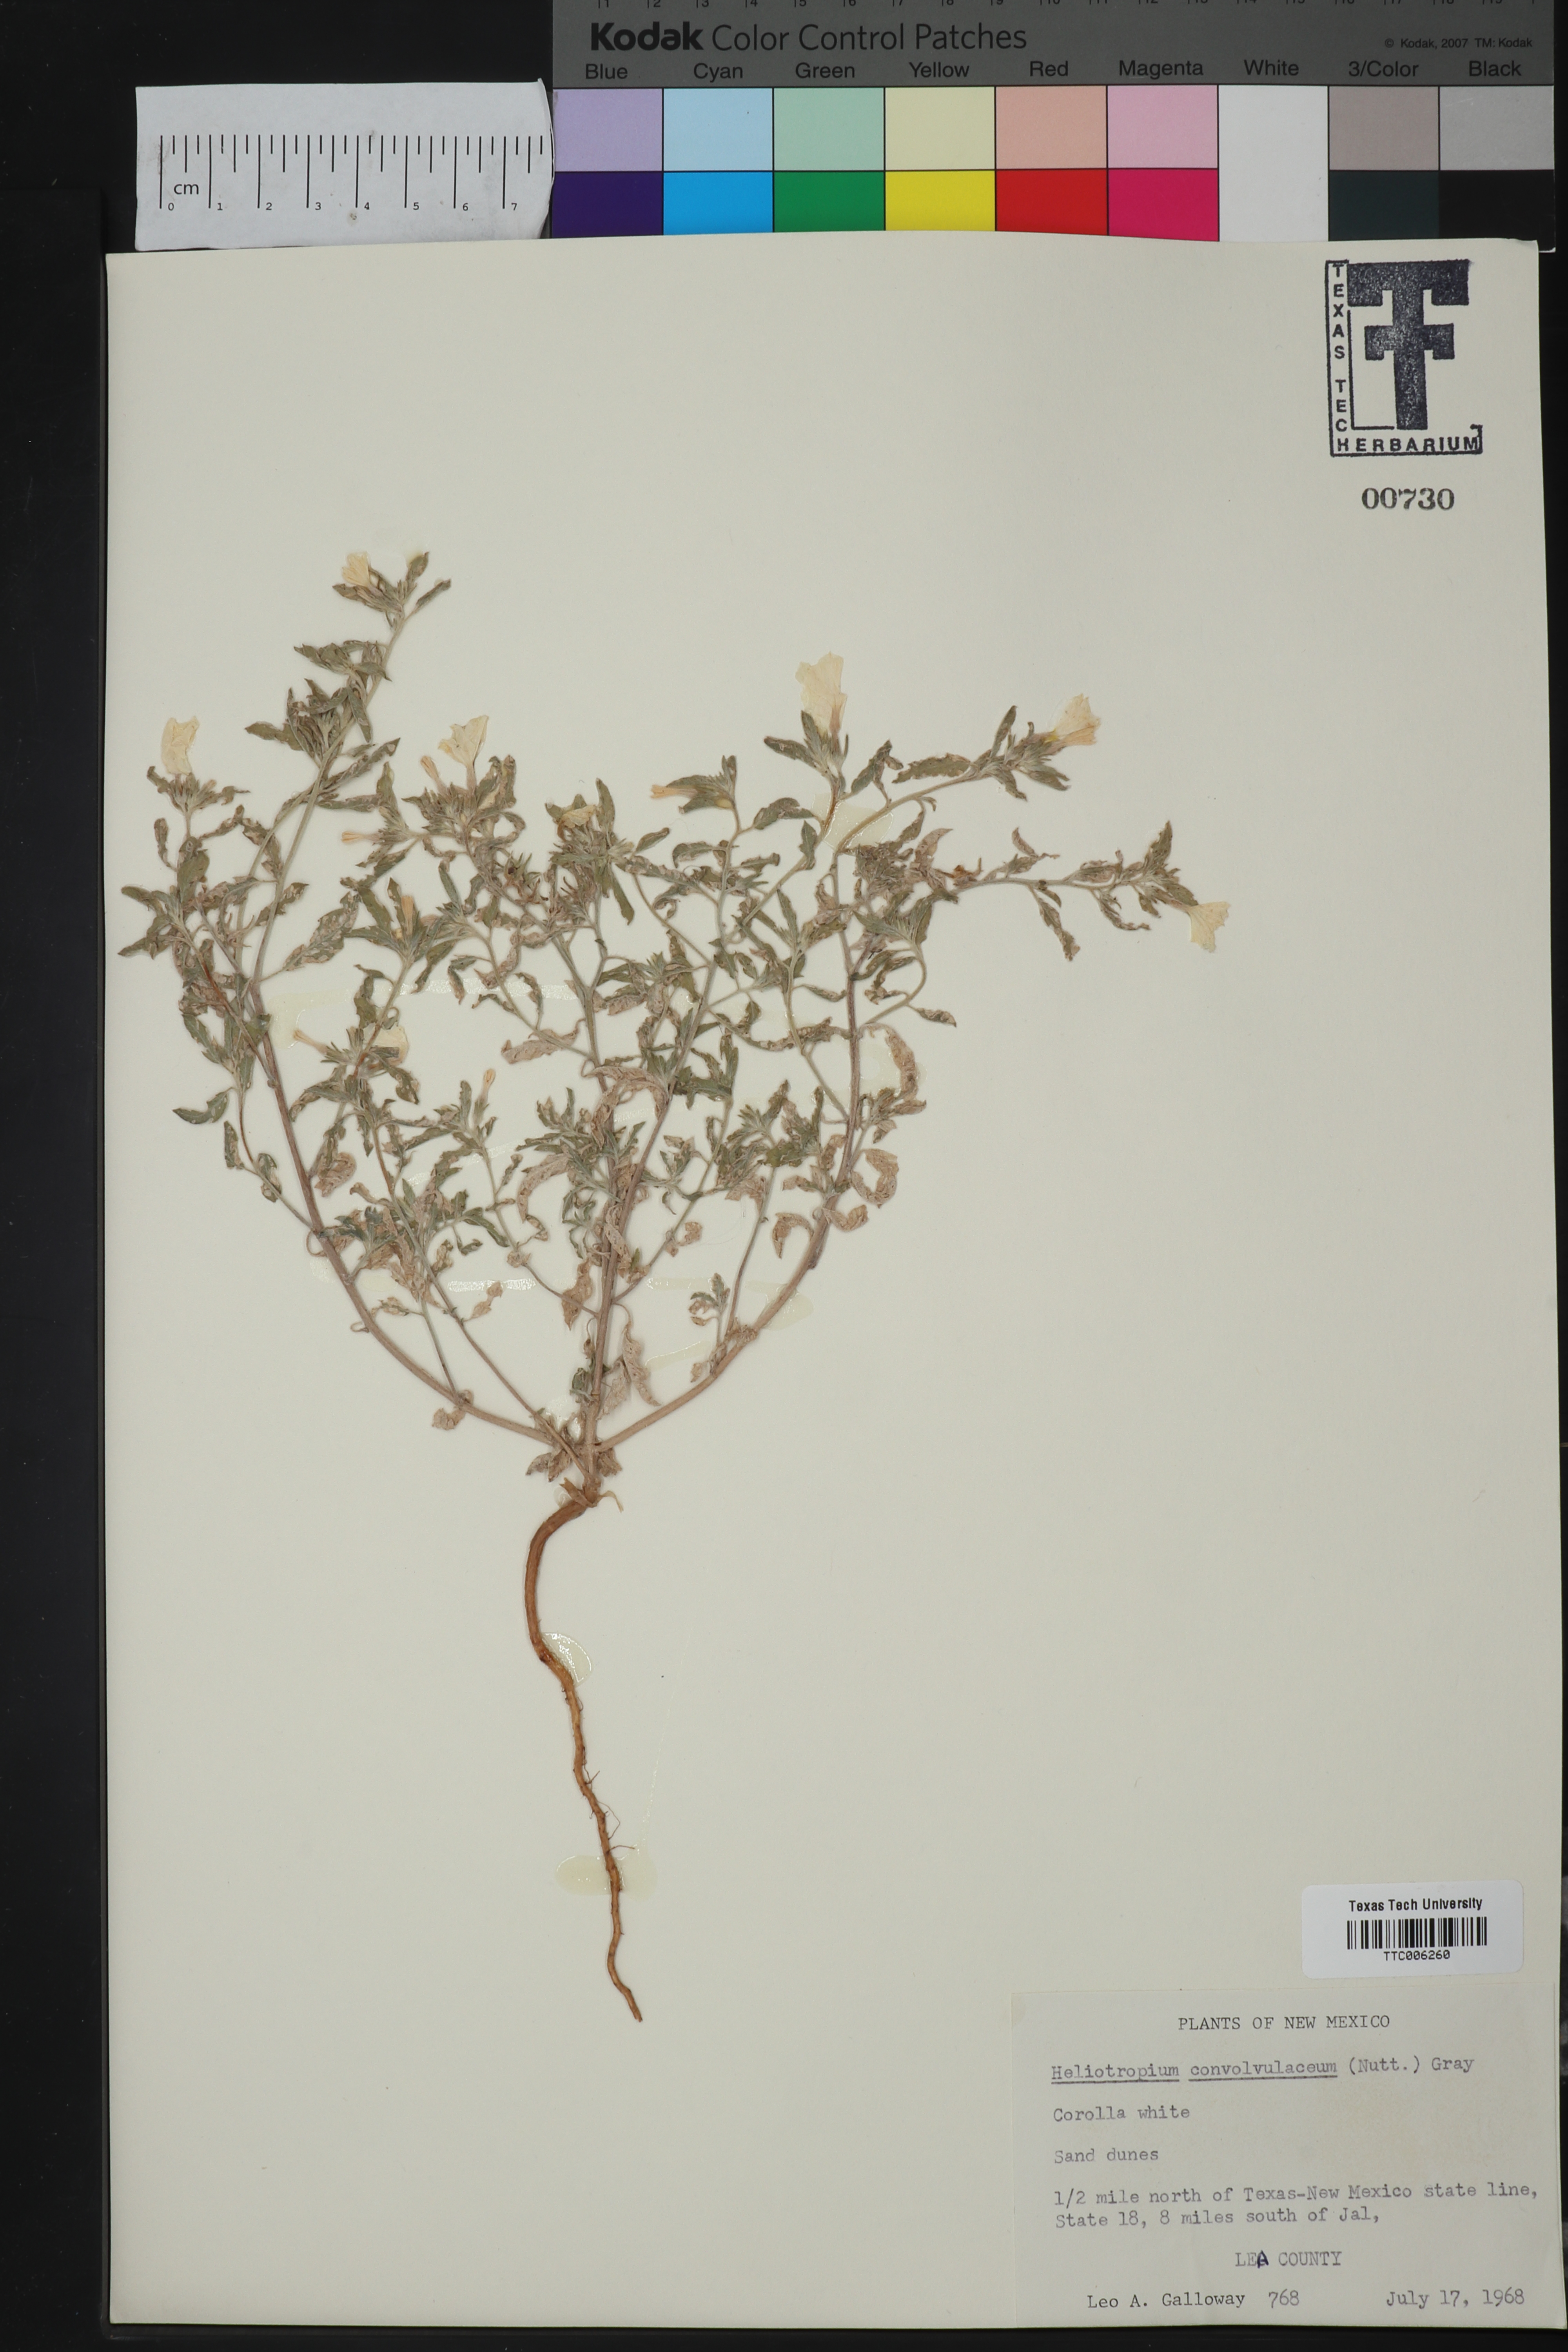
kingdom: Plantae
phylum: Tracheophyta
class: Magnoliopsida
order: Boraginales
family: Heliotropiaceae
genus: Euploca
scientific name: Euploca convolvulacea
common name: Bindweed heliotrope
